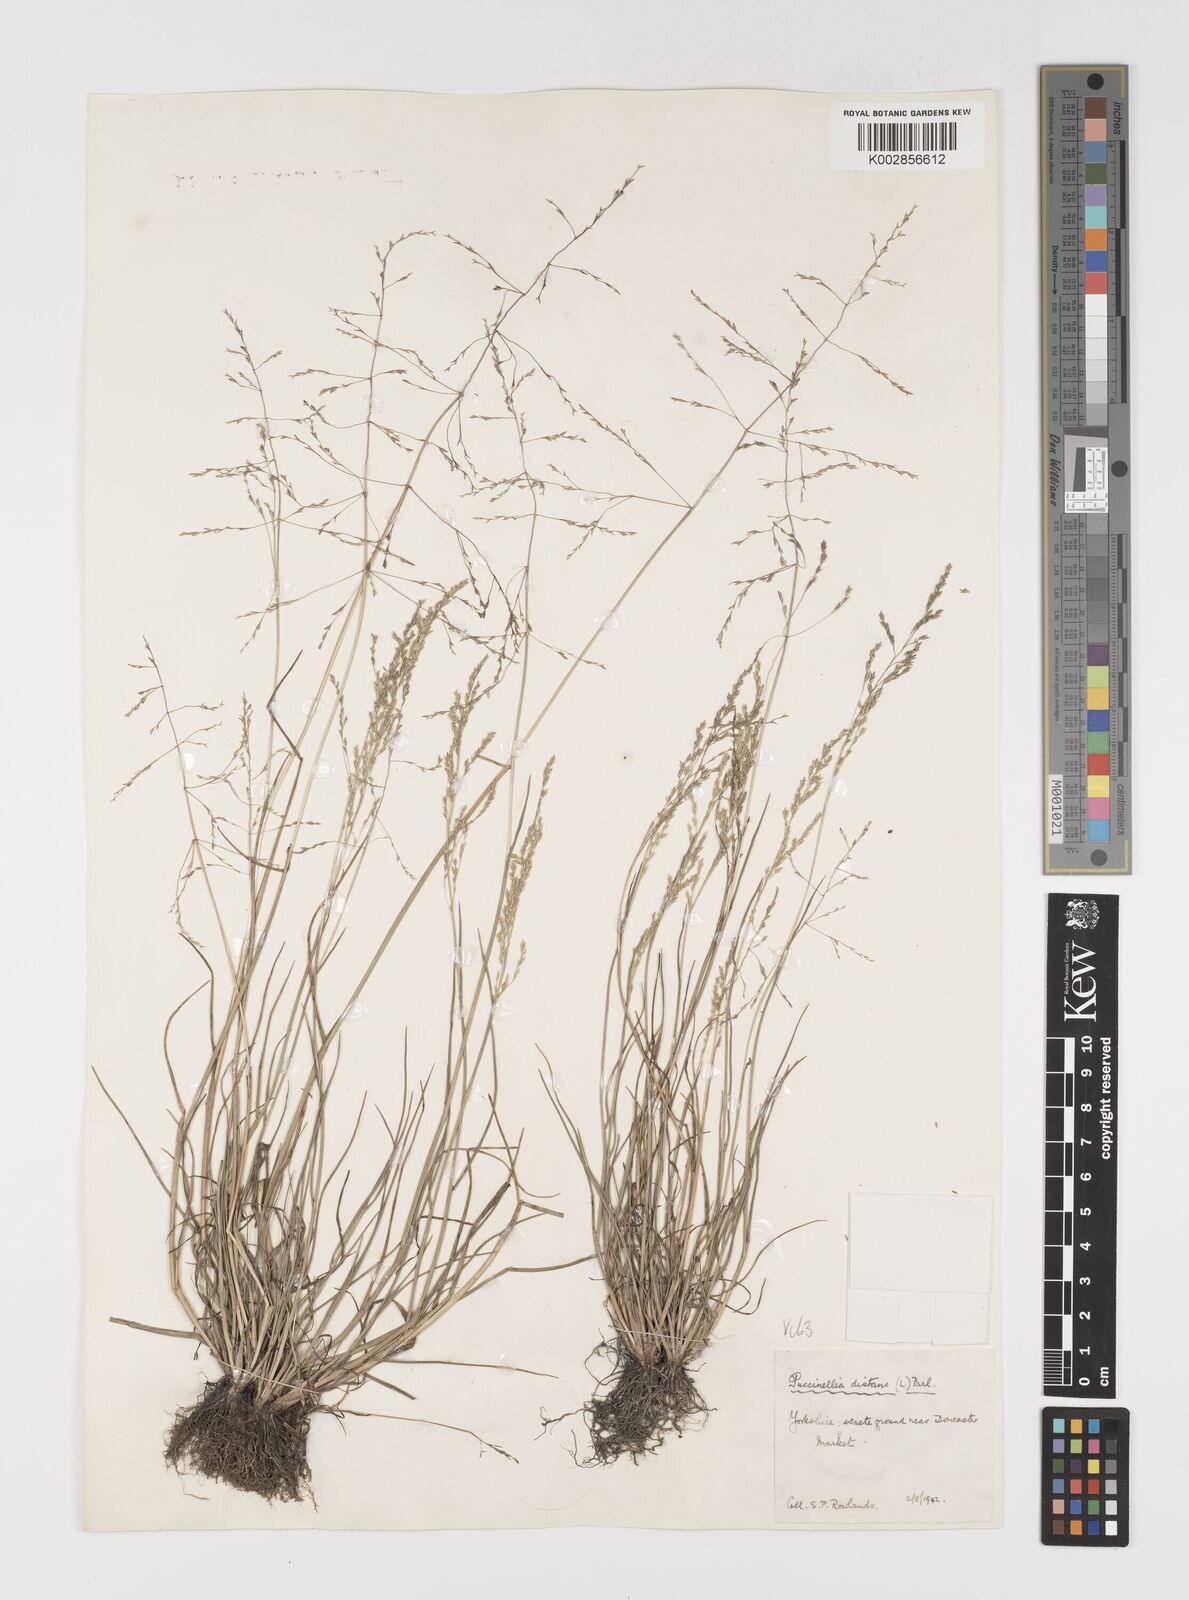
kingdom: Plantae
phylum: Tracheophyta
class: Liliopsida
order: Poales
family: Poaceae
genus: Puccinellia
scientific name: Puccinellia distans
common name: Weeping alkaligrass
